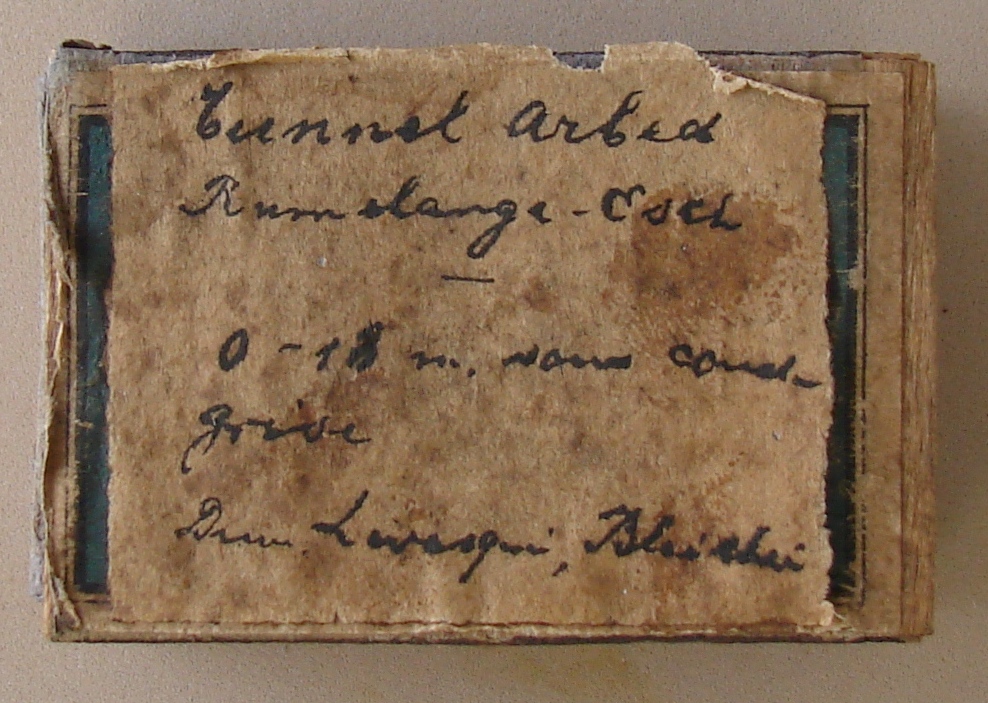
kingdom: Animalia
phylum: Mollusca
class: Cephalopoda
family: Hildoceratidae
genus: Dumortieria
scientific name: Dumortieria levesquei
